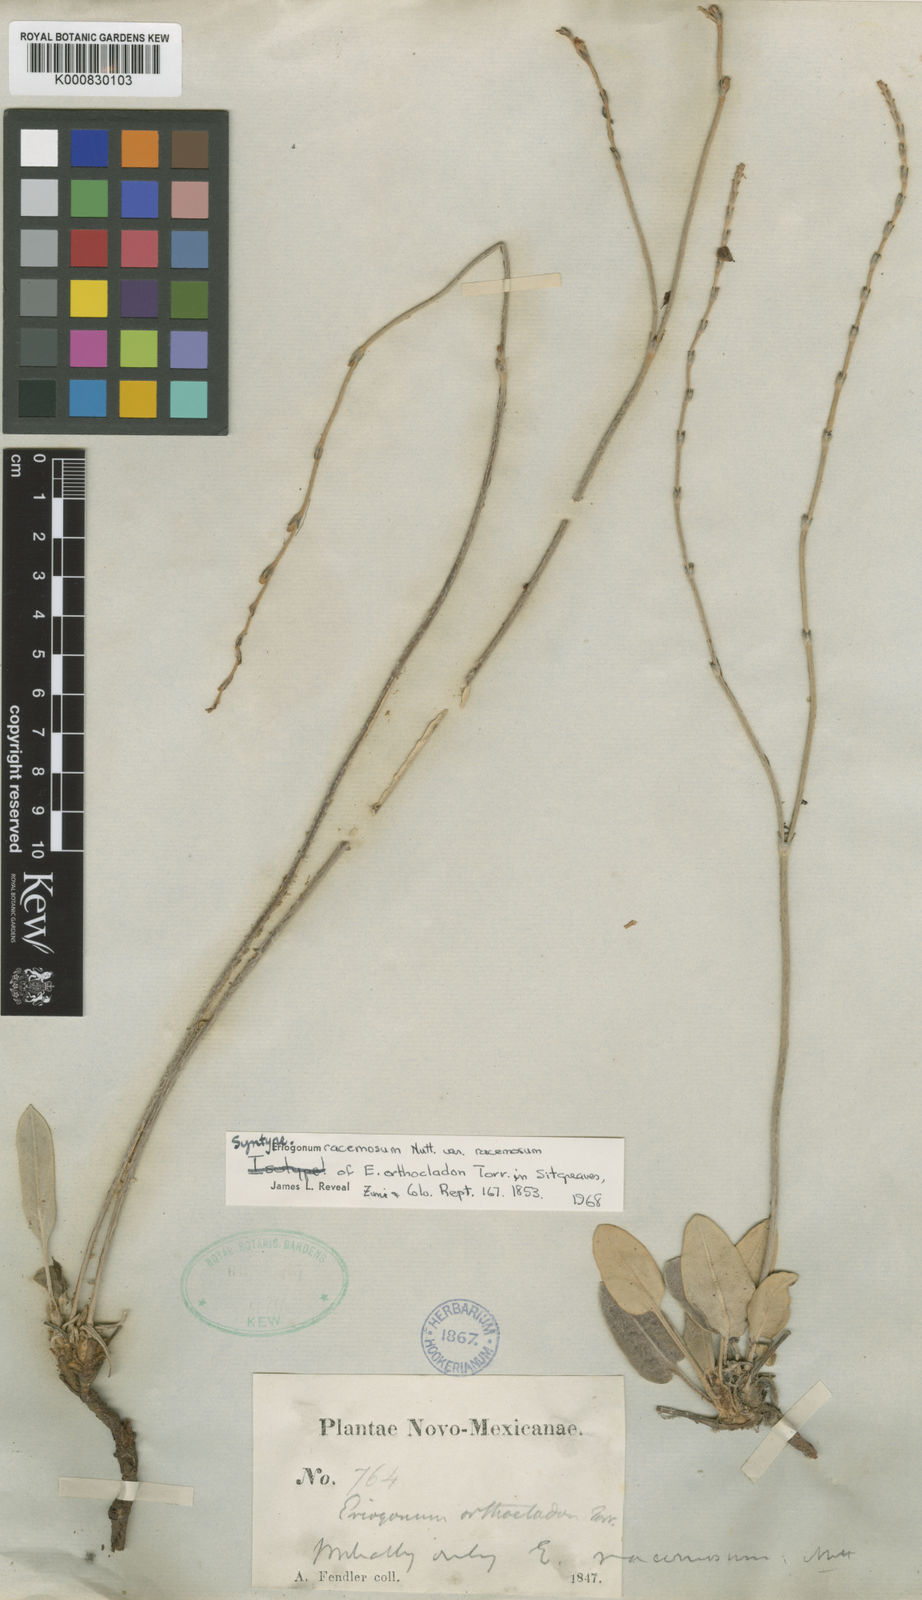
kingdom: Plantae
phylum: Tracheophyta
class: Magnoliopsida
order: Caryophyllales
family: Polygonaceae
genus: Eriogonum
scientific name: Eriogonum racemosum
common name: Redroot wild buckwheat
